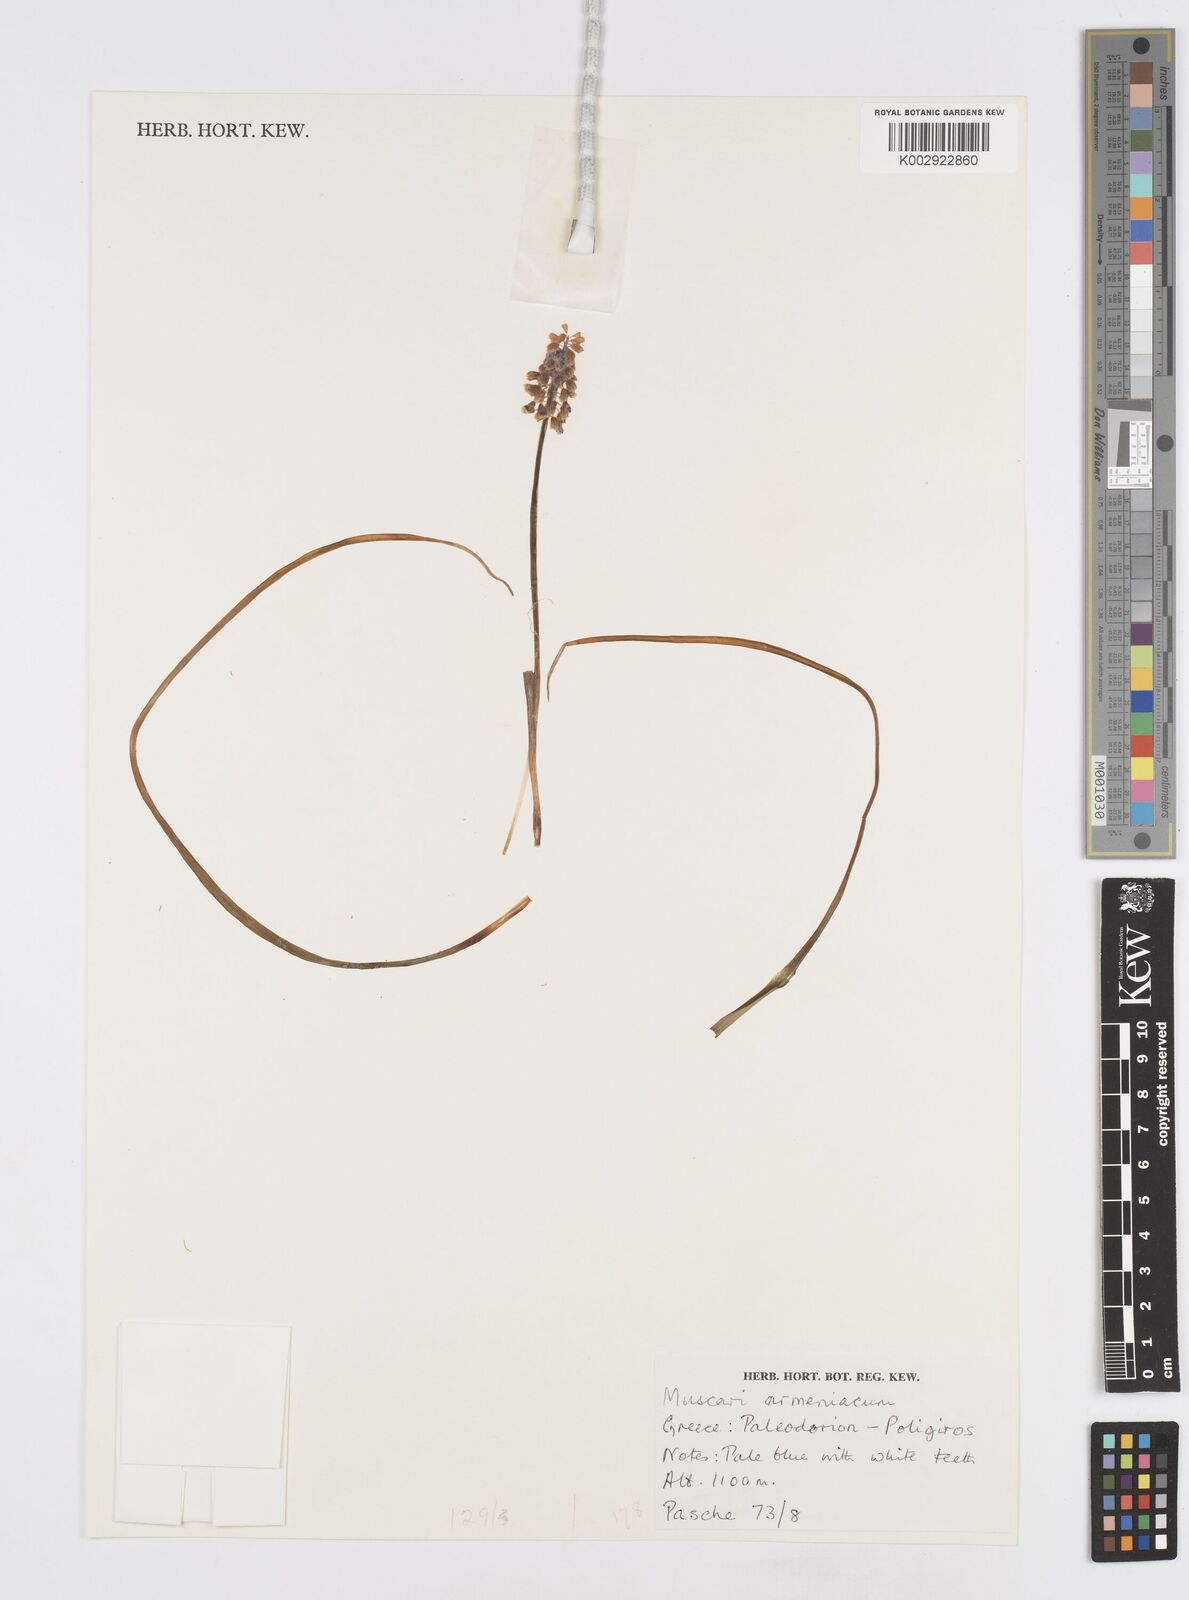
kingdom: Plantae
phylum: Tracheophyta
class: Liliopsida
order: Asparagales
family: Asparagaceae
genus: Muscari
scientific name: Muscari
